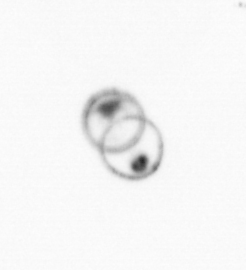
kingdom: Chromista
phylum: Ochrophyta
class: Bacillariophyceae
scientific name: Bacillariophyceae
